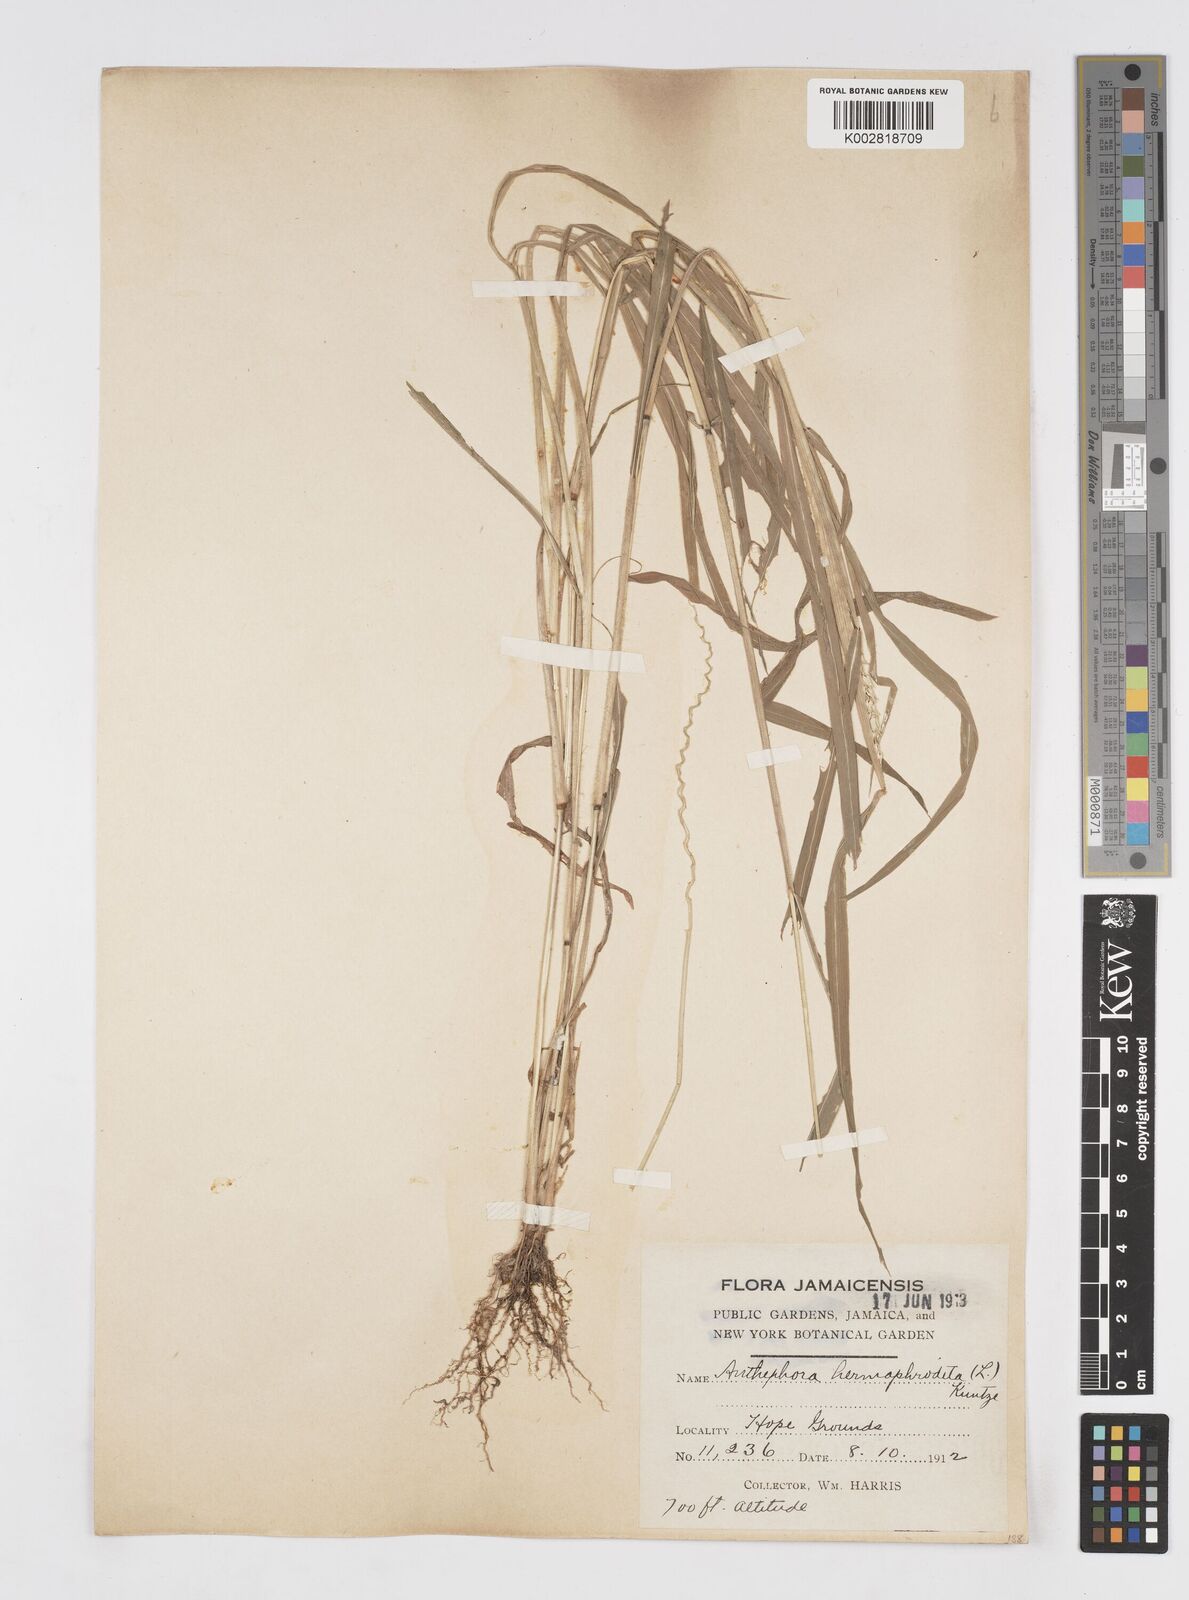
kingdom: Plantae
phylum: Tracheophyta
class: Liliopsida
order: Poales
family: Poaceae
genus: Anthephora
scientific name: Anthephora hermaphrodita
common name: Oldfield grass
